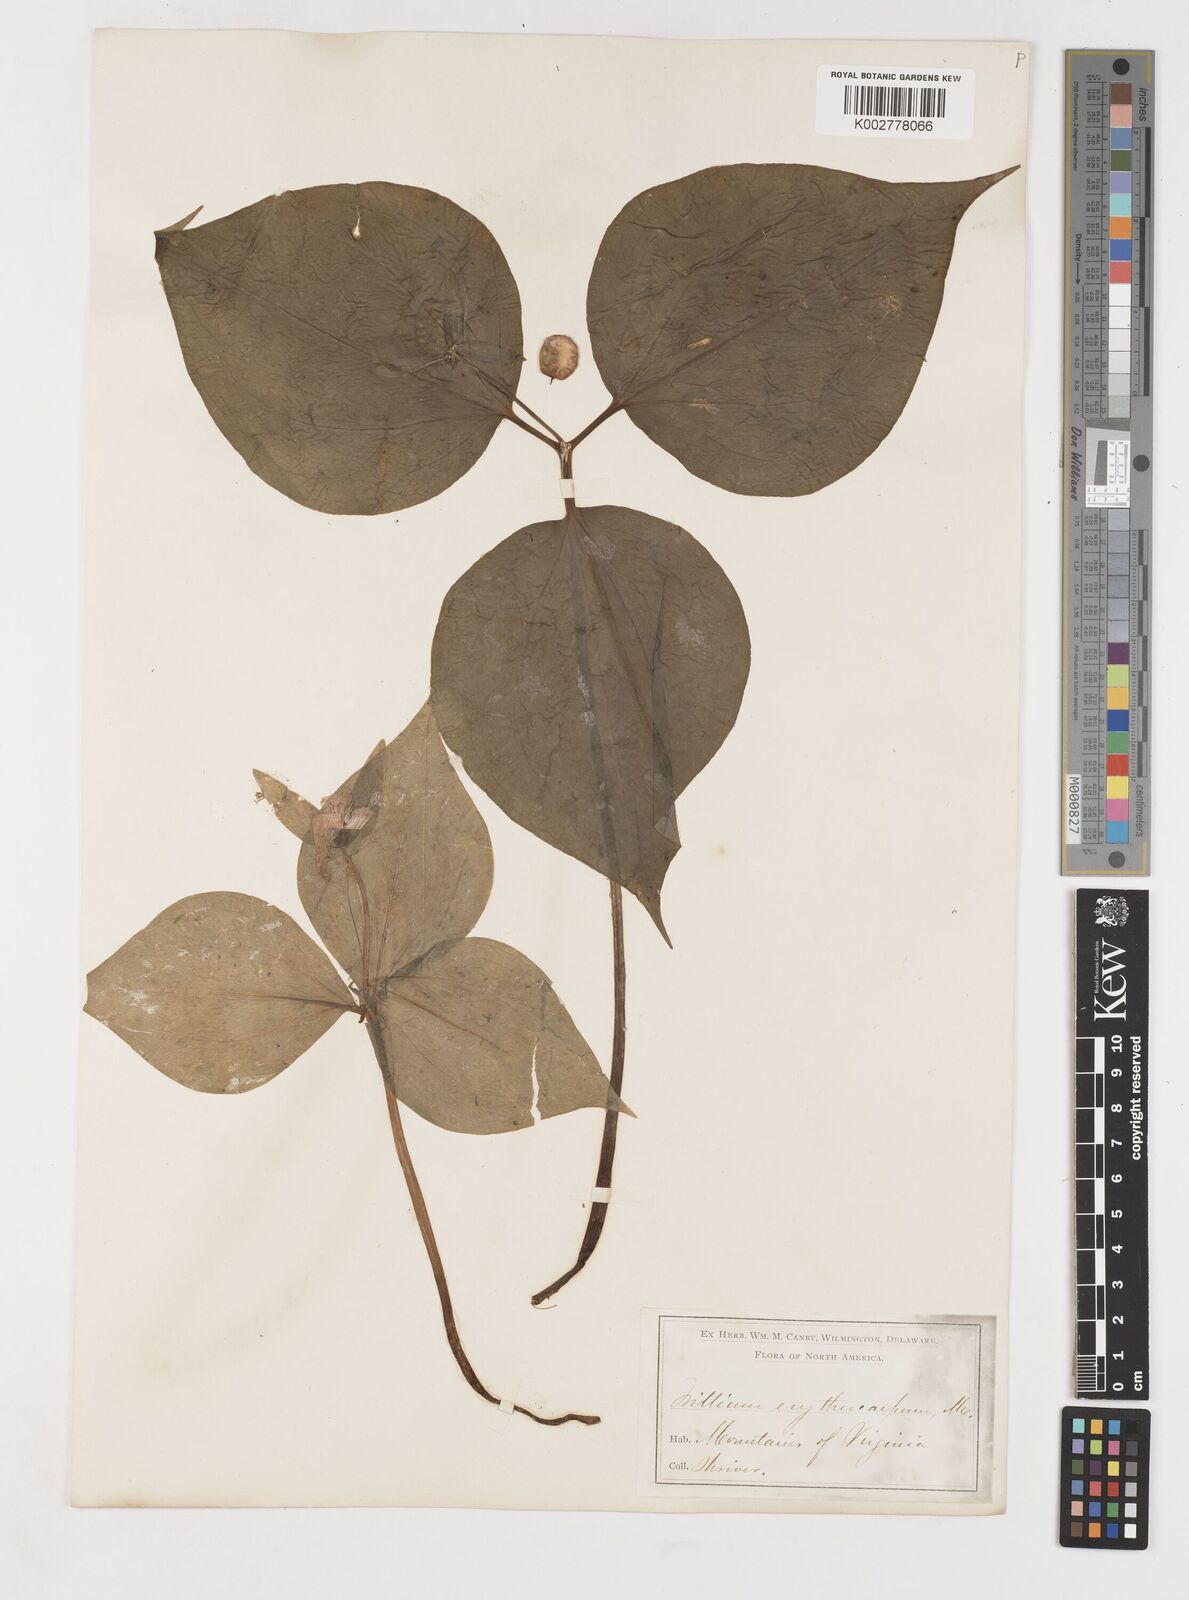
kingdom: Plantae
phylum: Tracheophyta
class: Liliopsida
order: Liliales
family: Melanthiaceae
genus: Trillium
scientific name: Trillium undulatum
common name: Paint trillium
